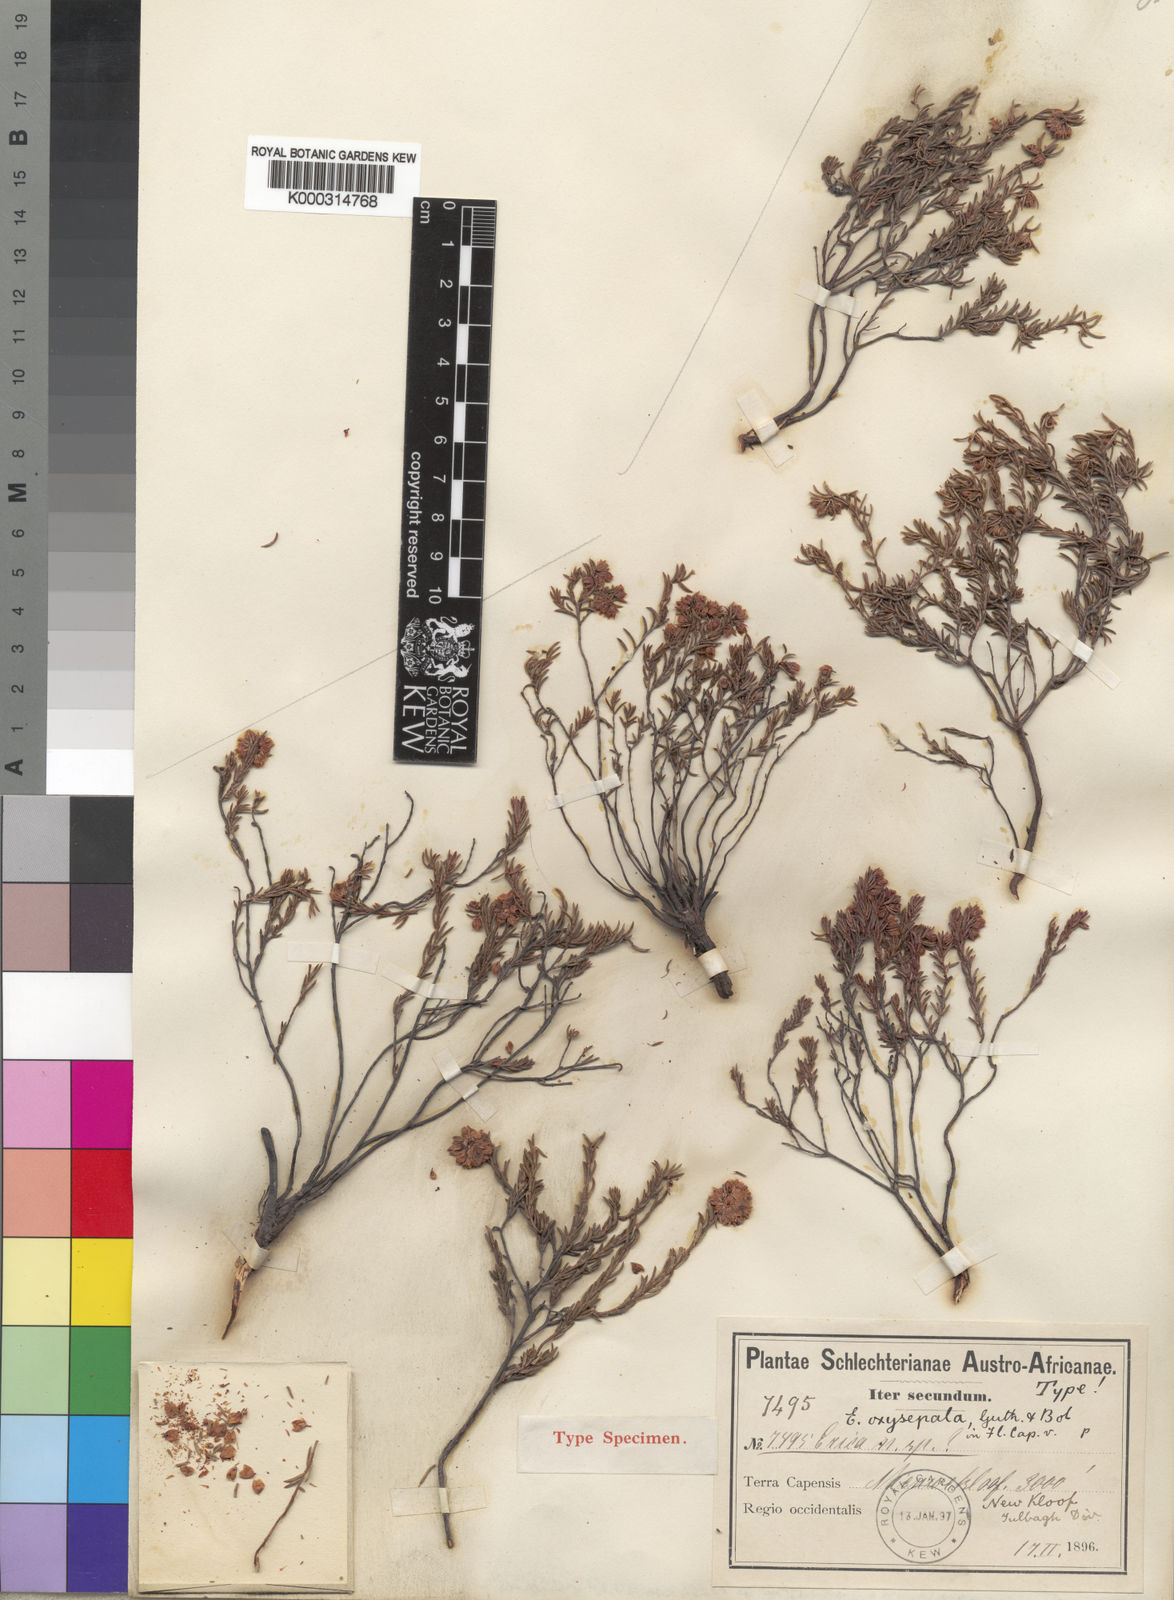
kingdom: Plantae
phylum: Tracheophyta
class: Magnoliopsida
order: Ericales
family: Ericaceae
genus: Erica
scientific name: Erica oxysepala
